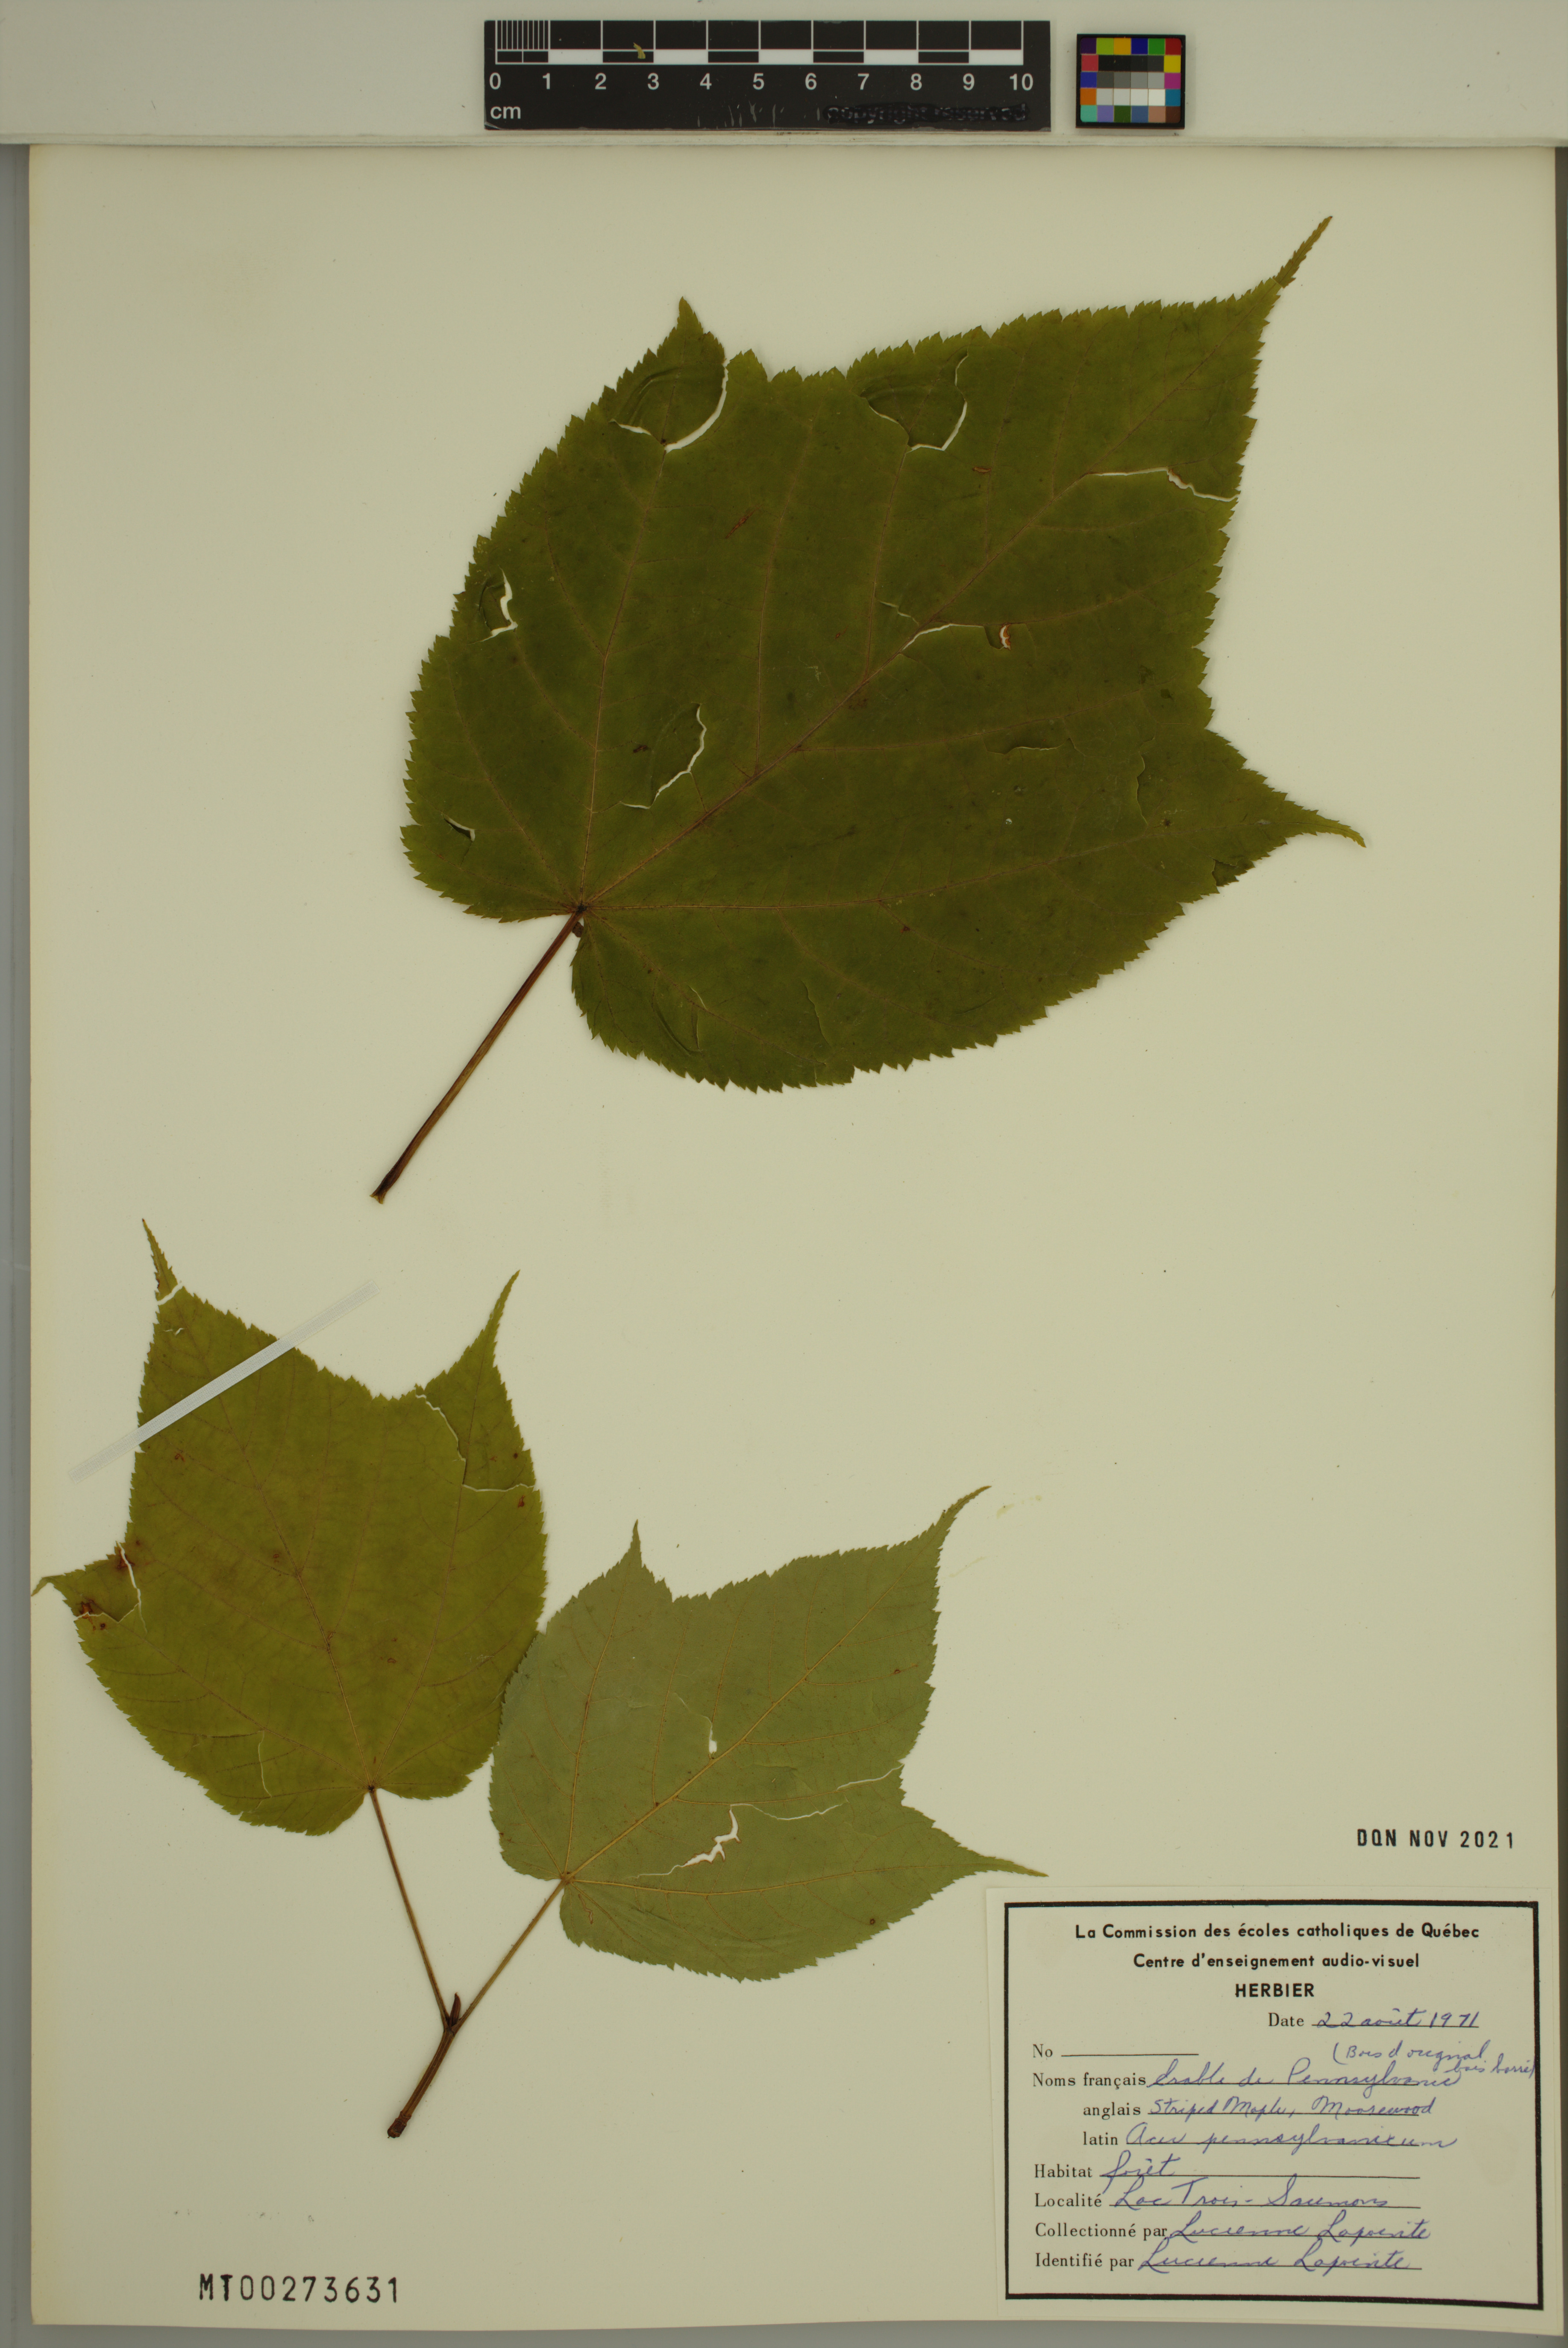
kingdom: Plantae
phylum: Tracheophyta
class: Magnoliopsida
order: Sapindales
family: Sapindaceae
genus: Acer
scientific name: Acer pensylvanicum
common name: Moosewood
